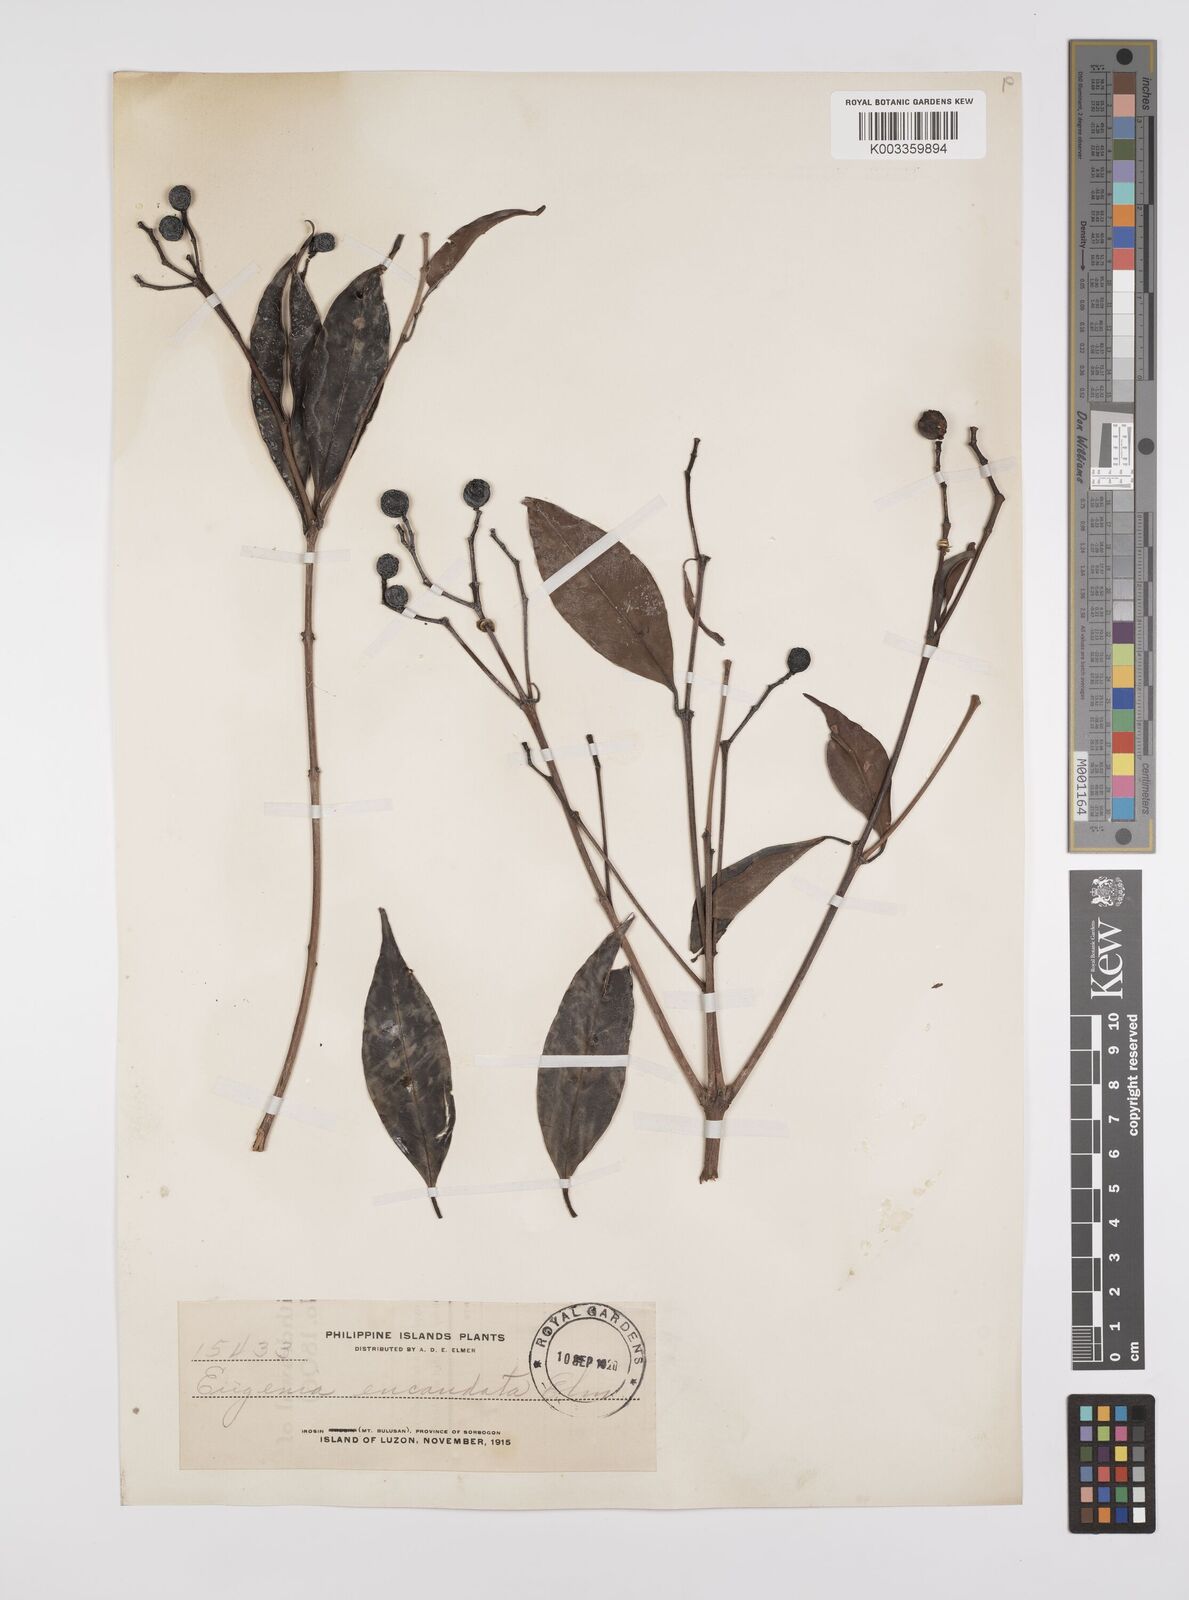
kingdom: Plantae
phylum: Tracheophyta
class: Magnoliopsida
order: Myrtales
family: Myrtaceae
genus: Syzygium
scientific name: Syzygium acuminatissimum
